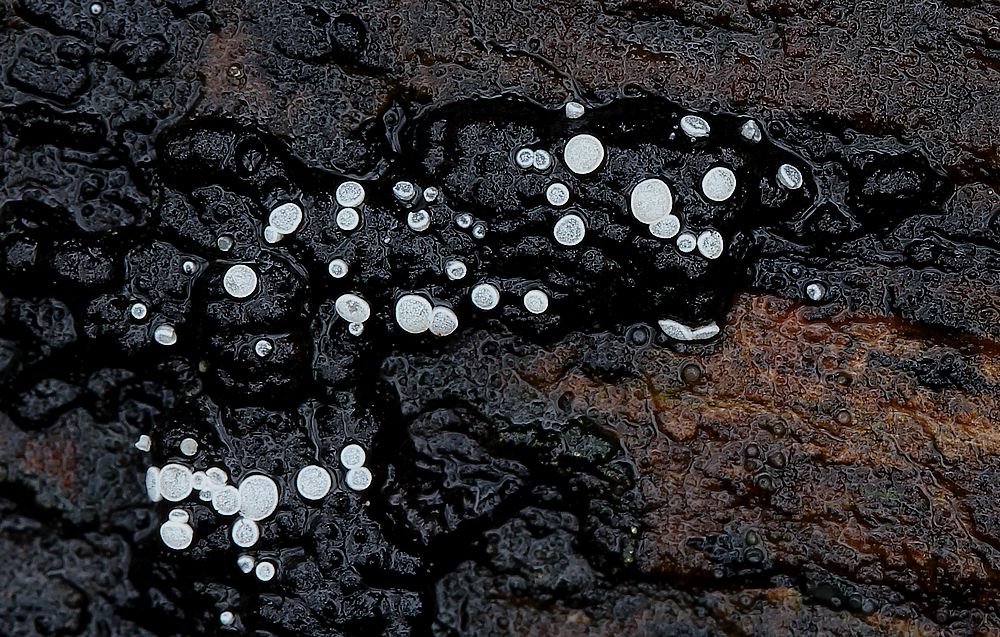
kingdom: Fungi
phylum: Ascomycota
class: Leotiomycetes
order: Helotiales
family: Hyaloscyphaceae
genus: Polydesmia
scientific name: Polydesmia pruinosa
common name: dunskive
